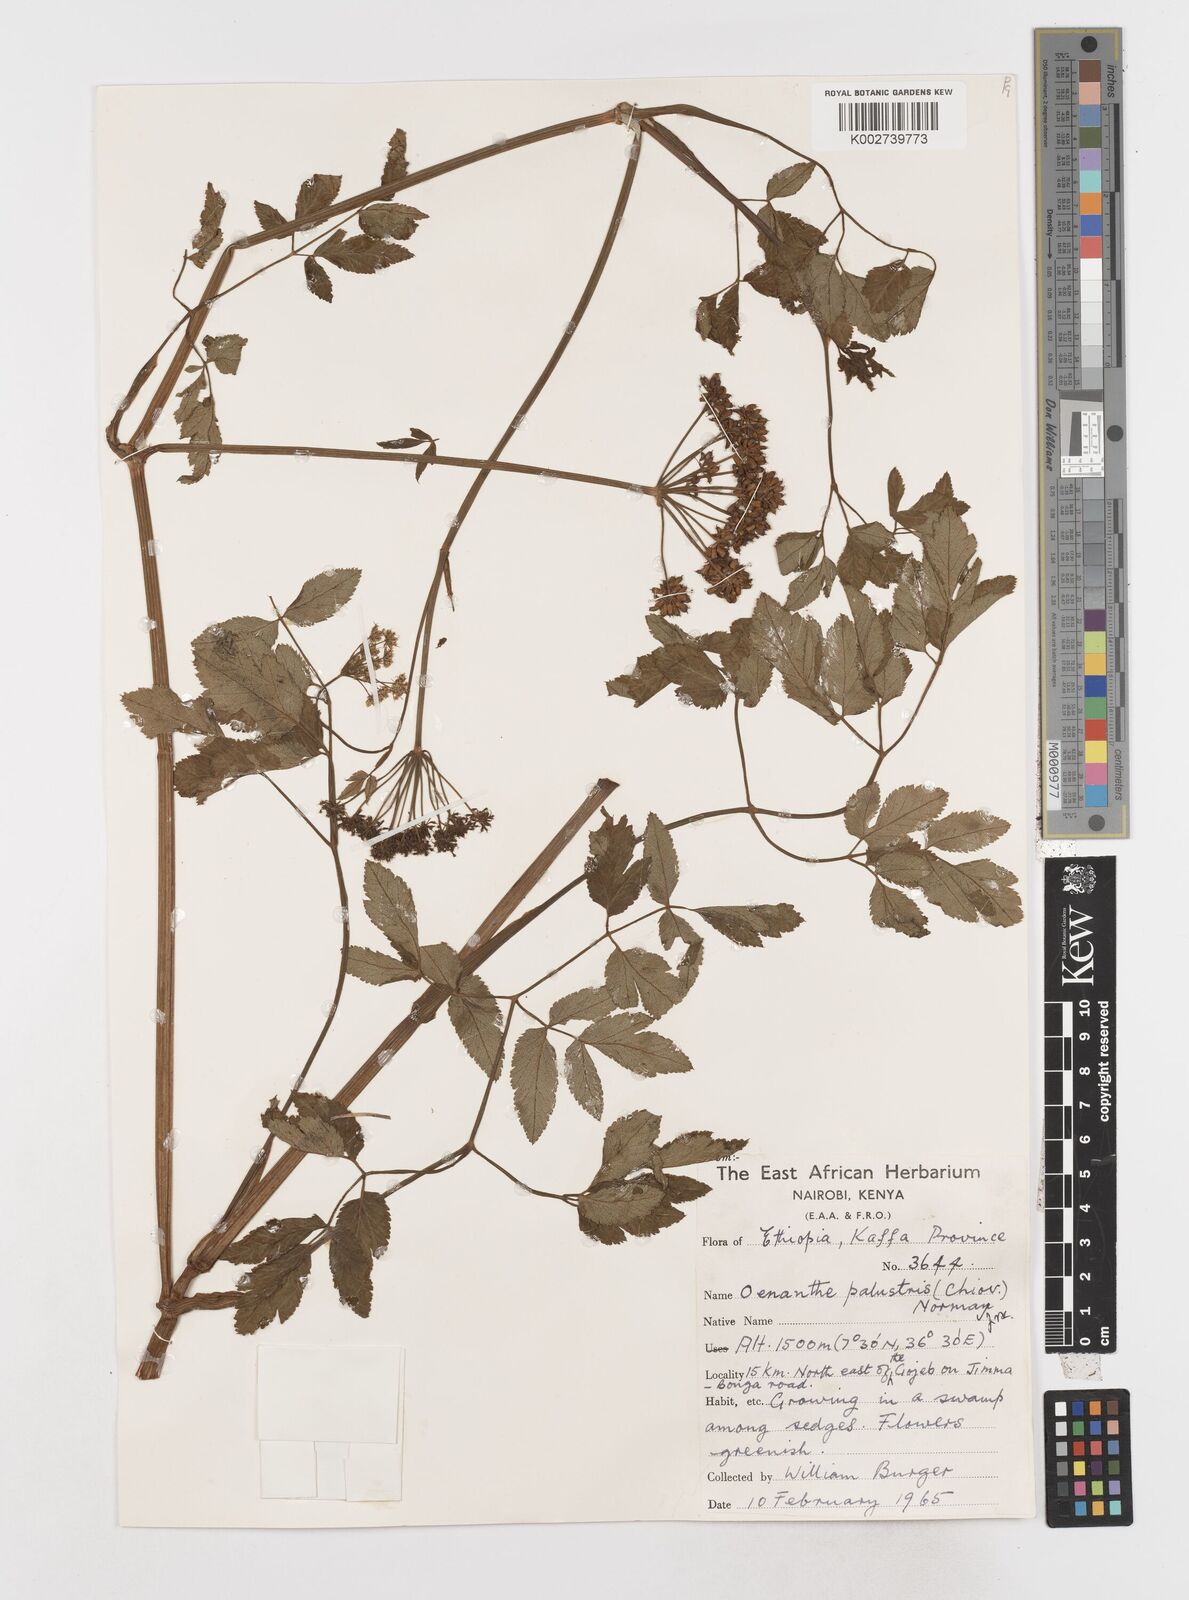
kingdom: Plantae
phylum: Tracheophyta
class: Magnoliopsida
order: Apiales
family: Apiaceae
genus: Oenanthe
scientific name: Oenanthe palustris
